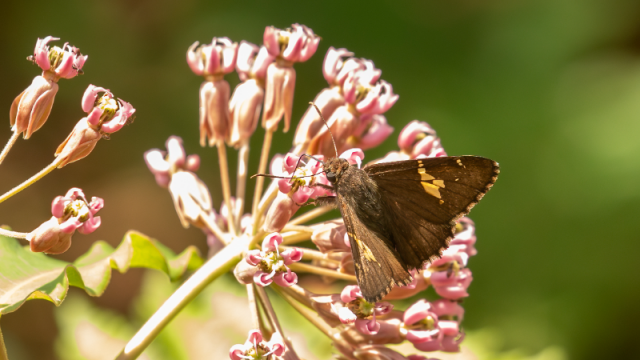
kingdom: Animalia
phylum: Arthropoda
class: Insecta
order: Lepidoptera
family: Hesperiidae
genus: Achalarus
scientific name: Achalarus lyciades
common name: Hoary Edge
